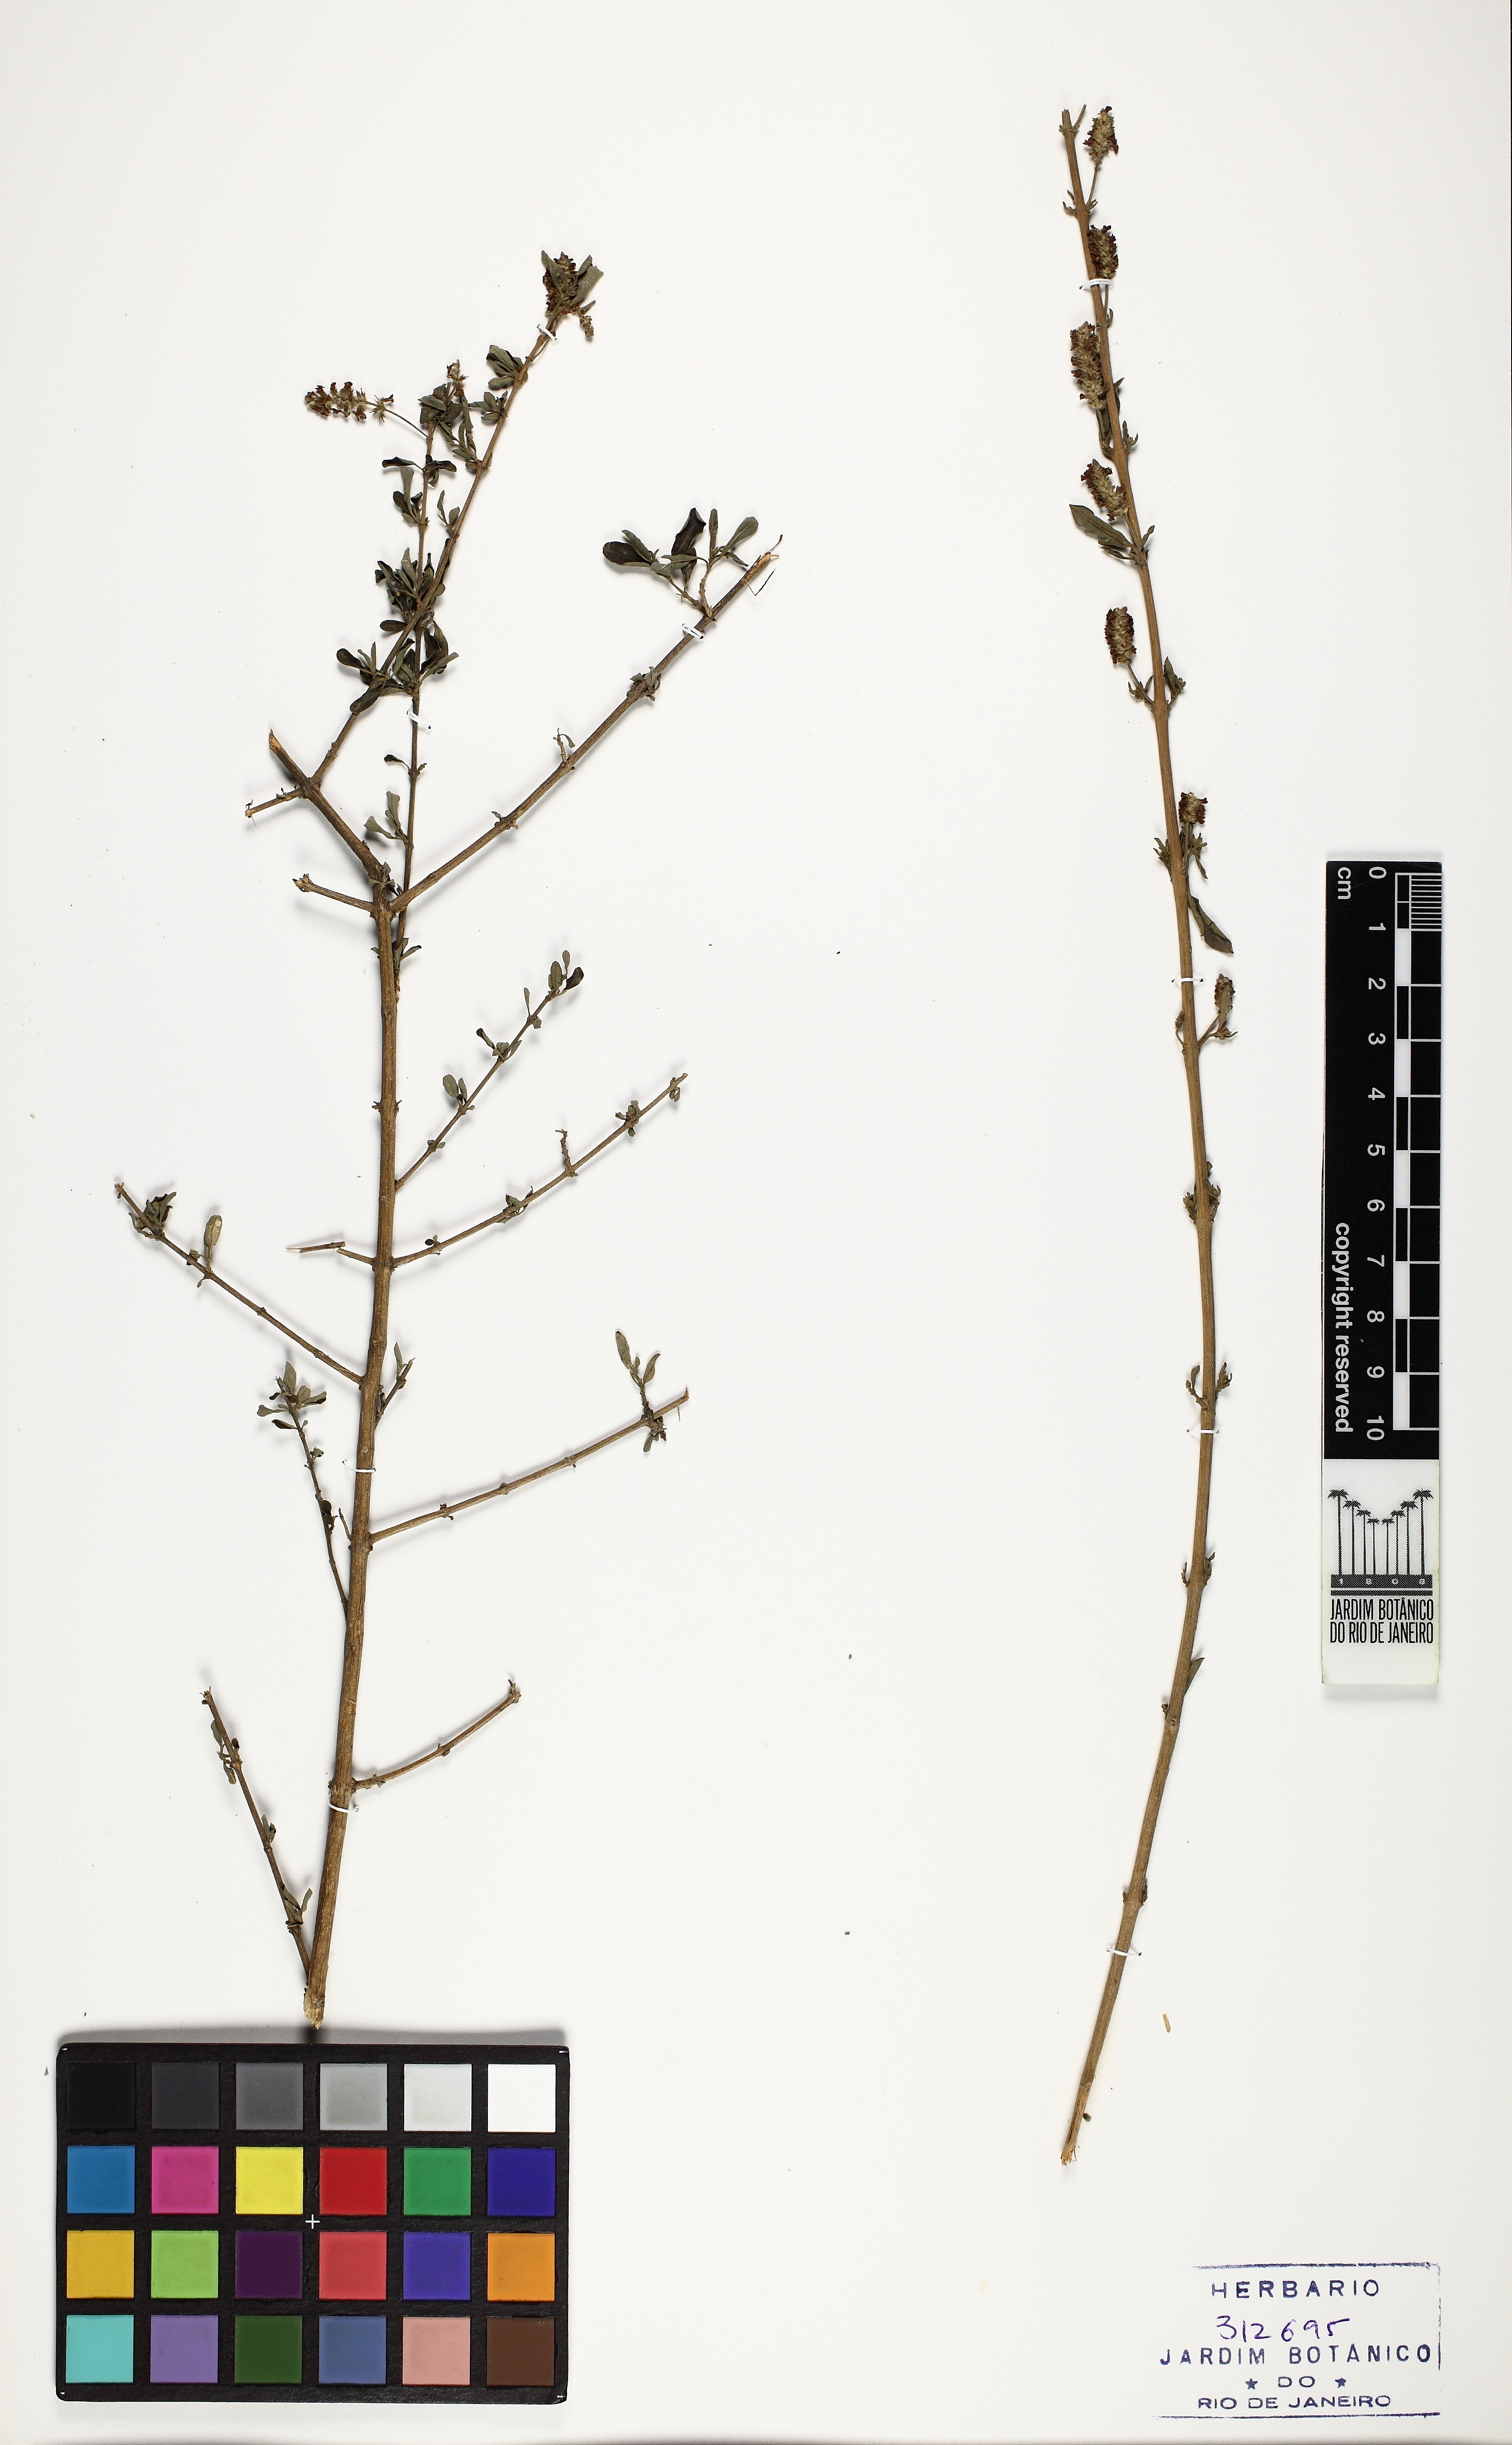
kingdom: Plantae
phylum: Tracheophyta
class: Magnoliopsida
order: Lamiales
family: Verbenaceae
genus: Aloysia
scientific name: Aloysia gratissima
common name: Common bee-brush
